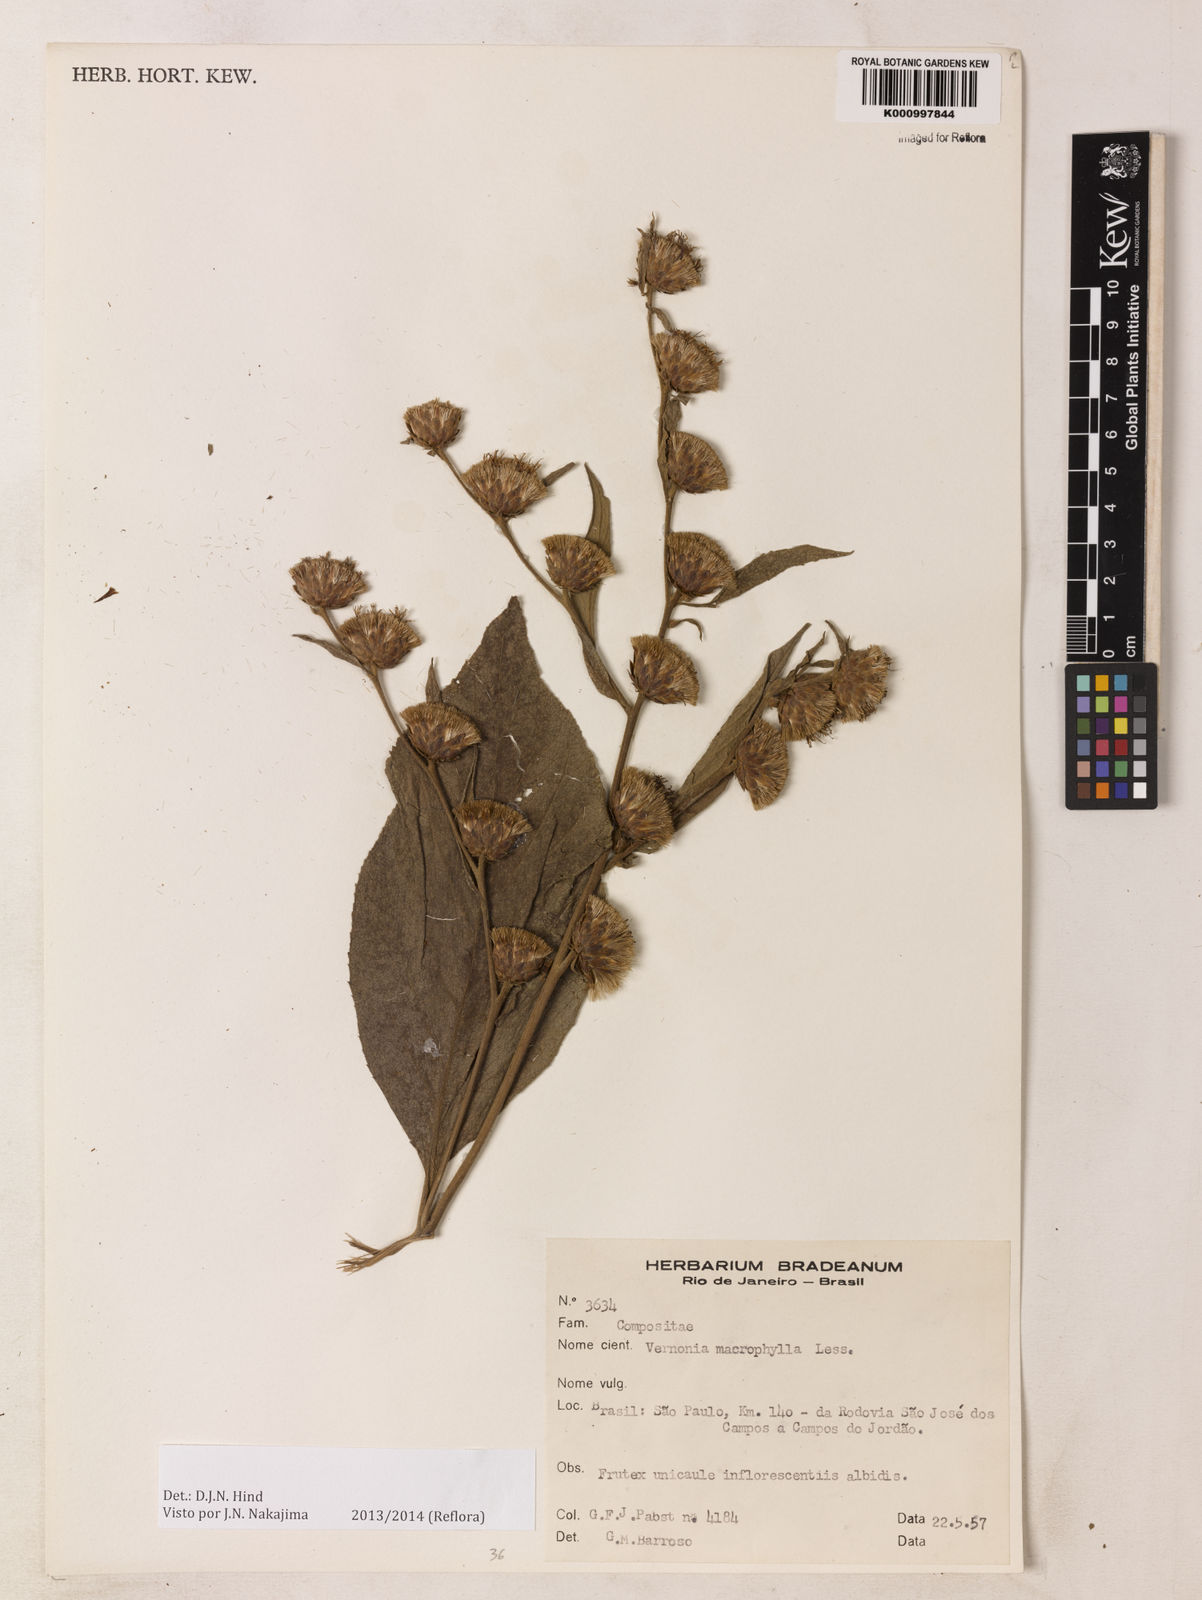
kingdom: Plantae
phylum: Tracheophyta
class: Magnoliopsida
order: Asterales
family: Asteraceae
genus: Lessingianthus
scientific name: Lessingianthus macrophyllus
